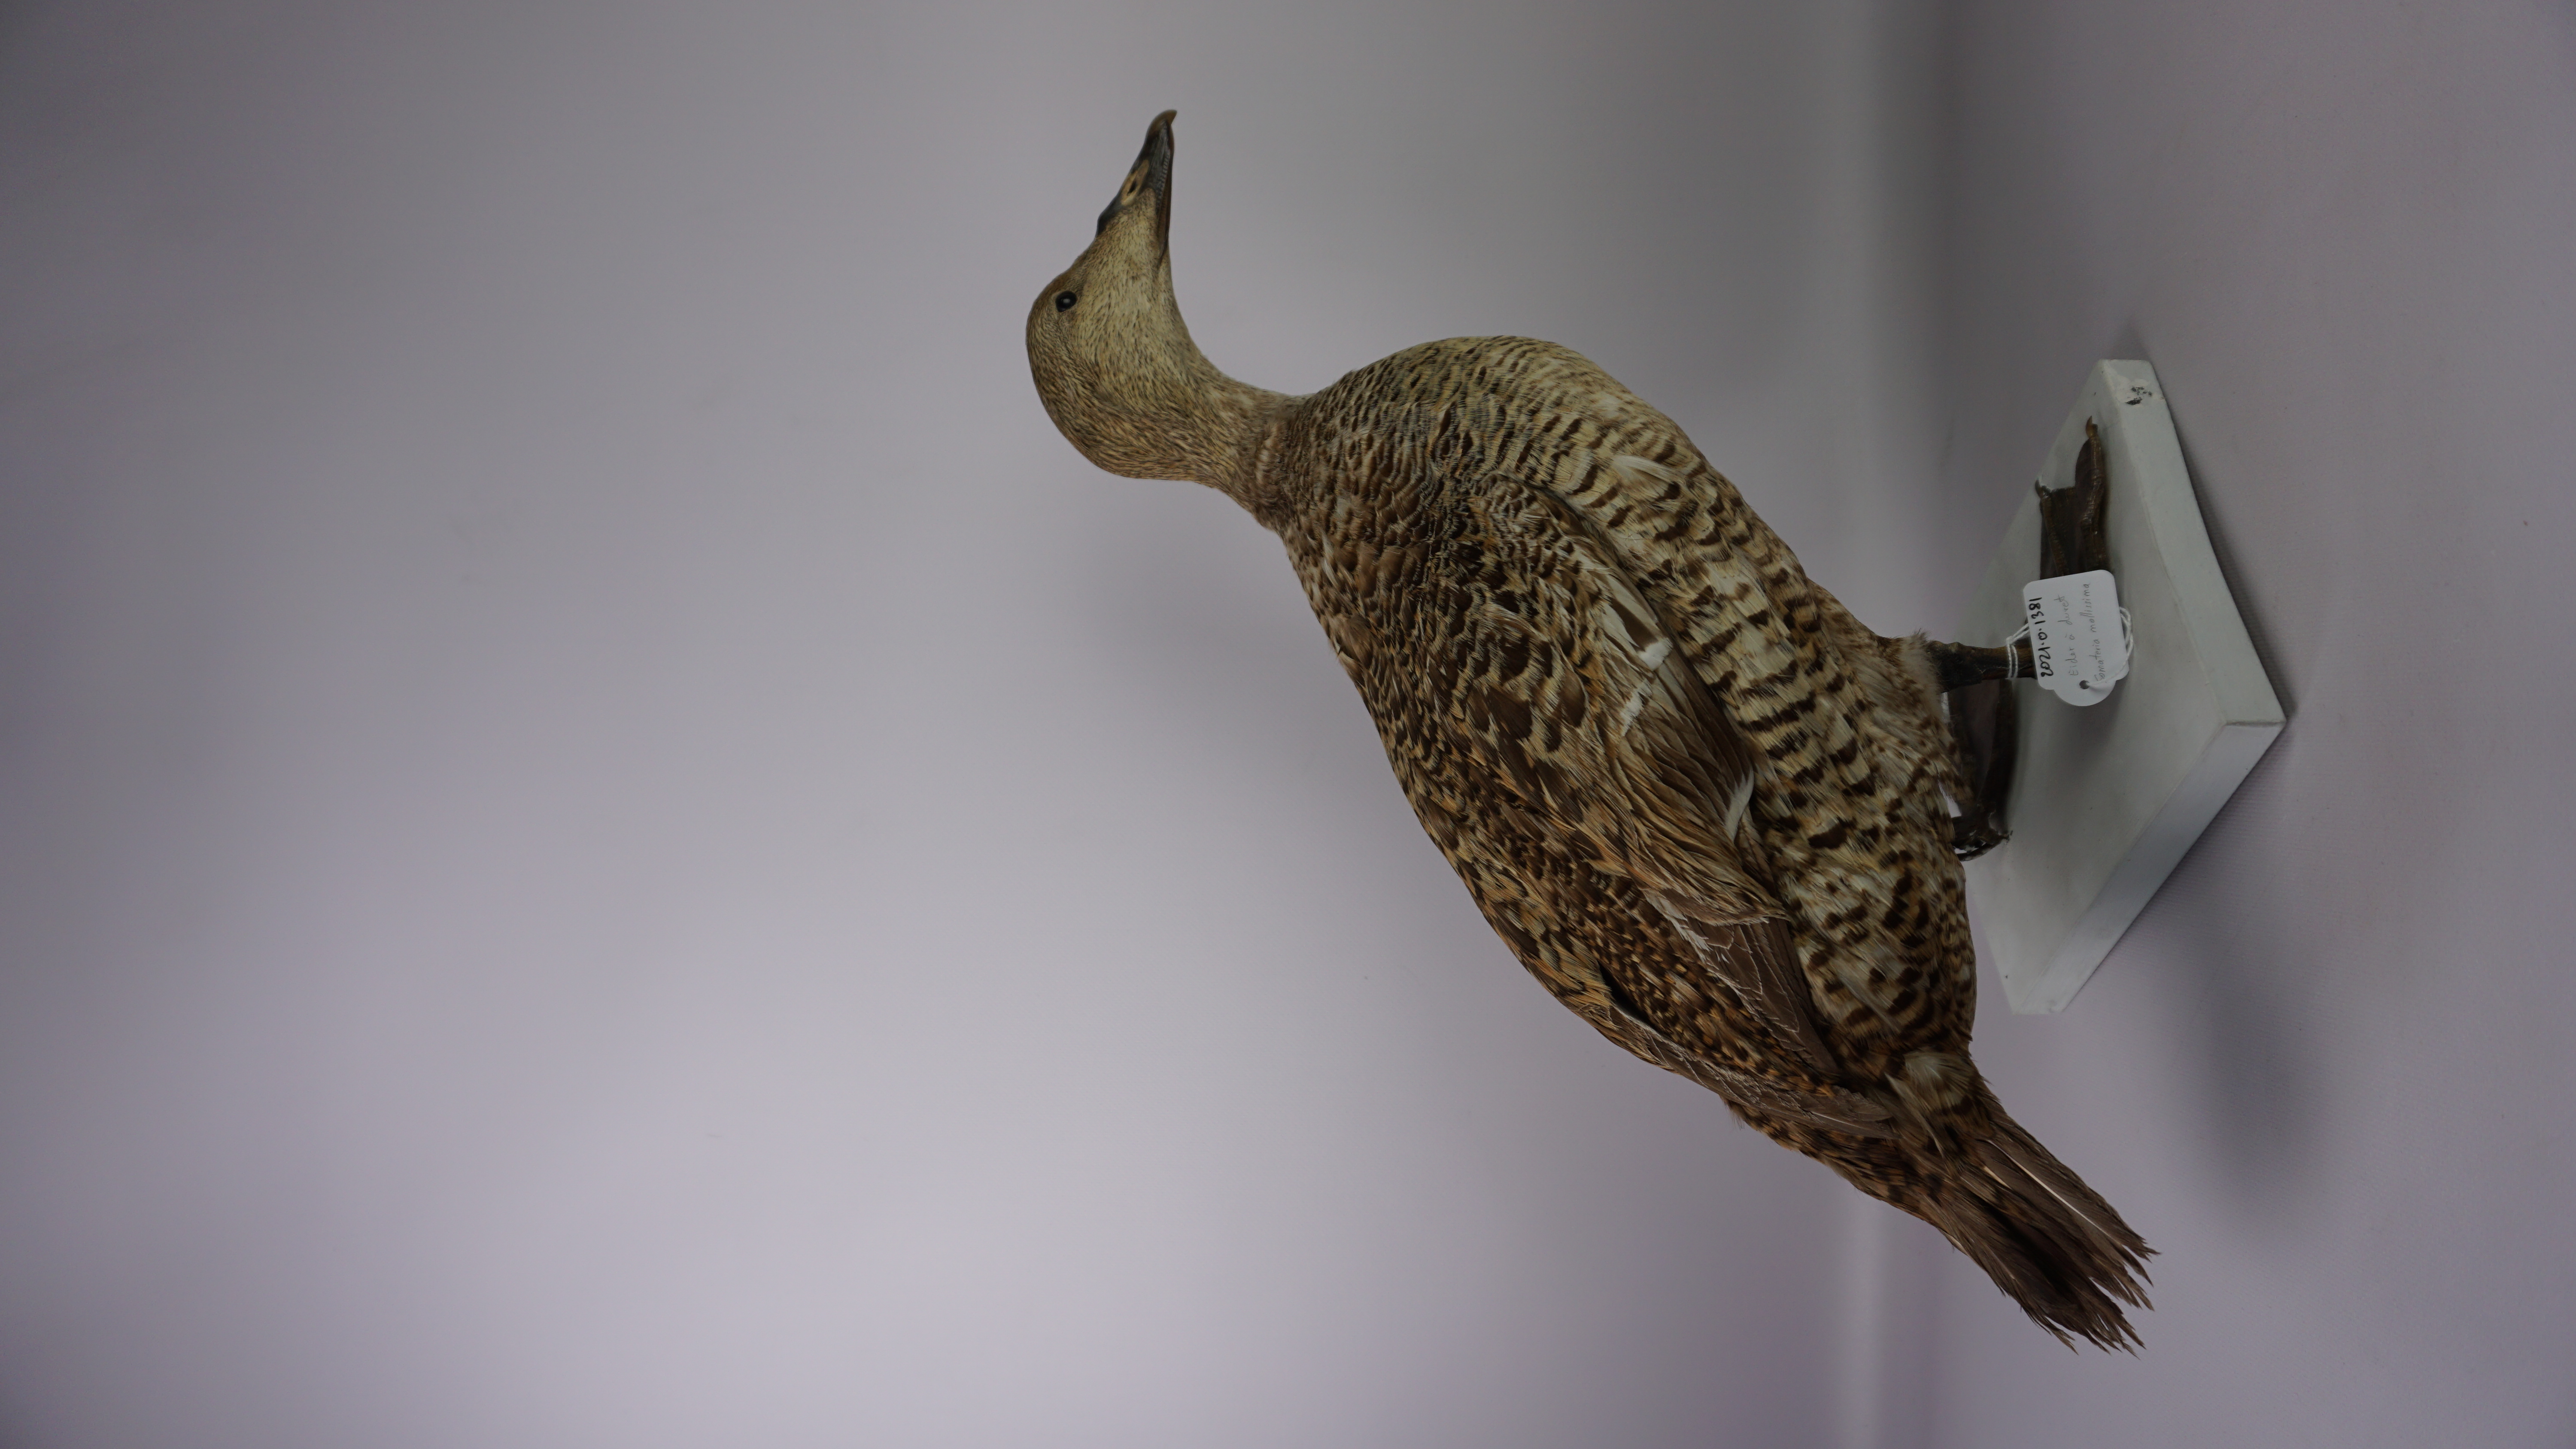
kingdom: Animalia
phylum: Chordata
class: Aves
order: Anseriformes
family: Anatidae
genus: Somateria
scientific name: Somateria mollissima
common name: Common eider
